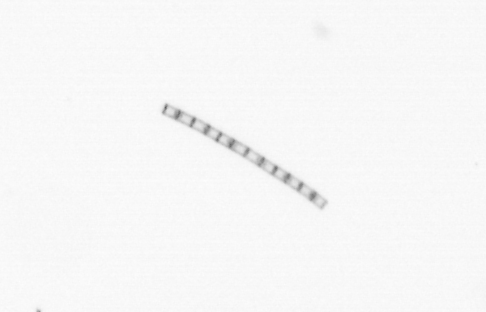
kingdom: Chromista
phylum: Ochrophyta
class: Bacillariophyceae
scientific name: Bacillariophyceae
